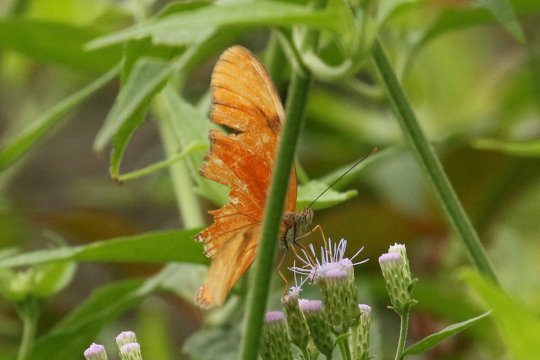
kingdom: Animalia
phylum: Arthropoda
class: Insecta
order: Lepidoptera
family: Nymphalidae
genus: Dryas
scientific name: Dryas iulia
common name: Julia
